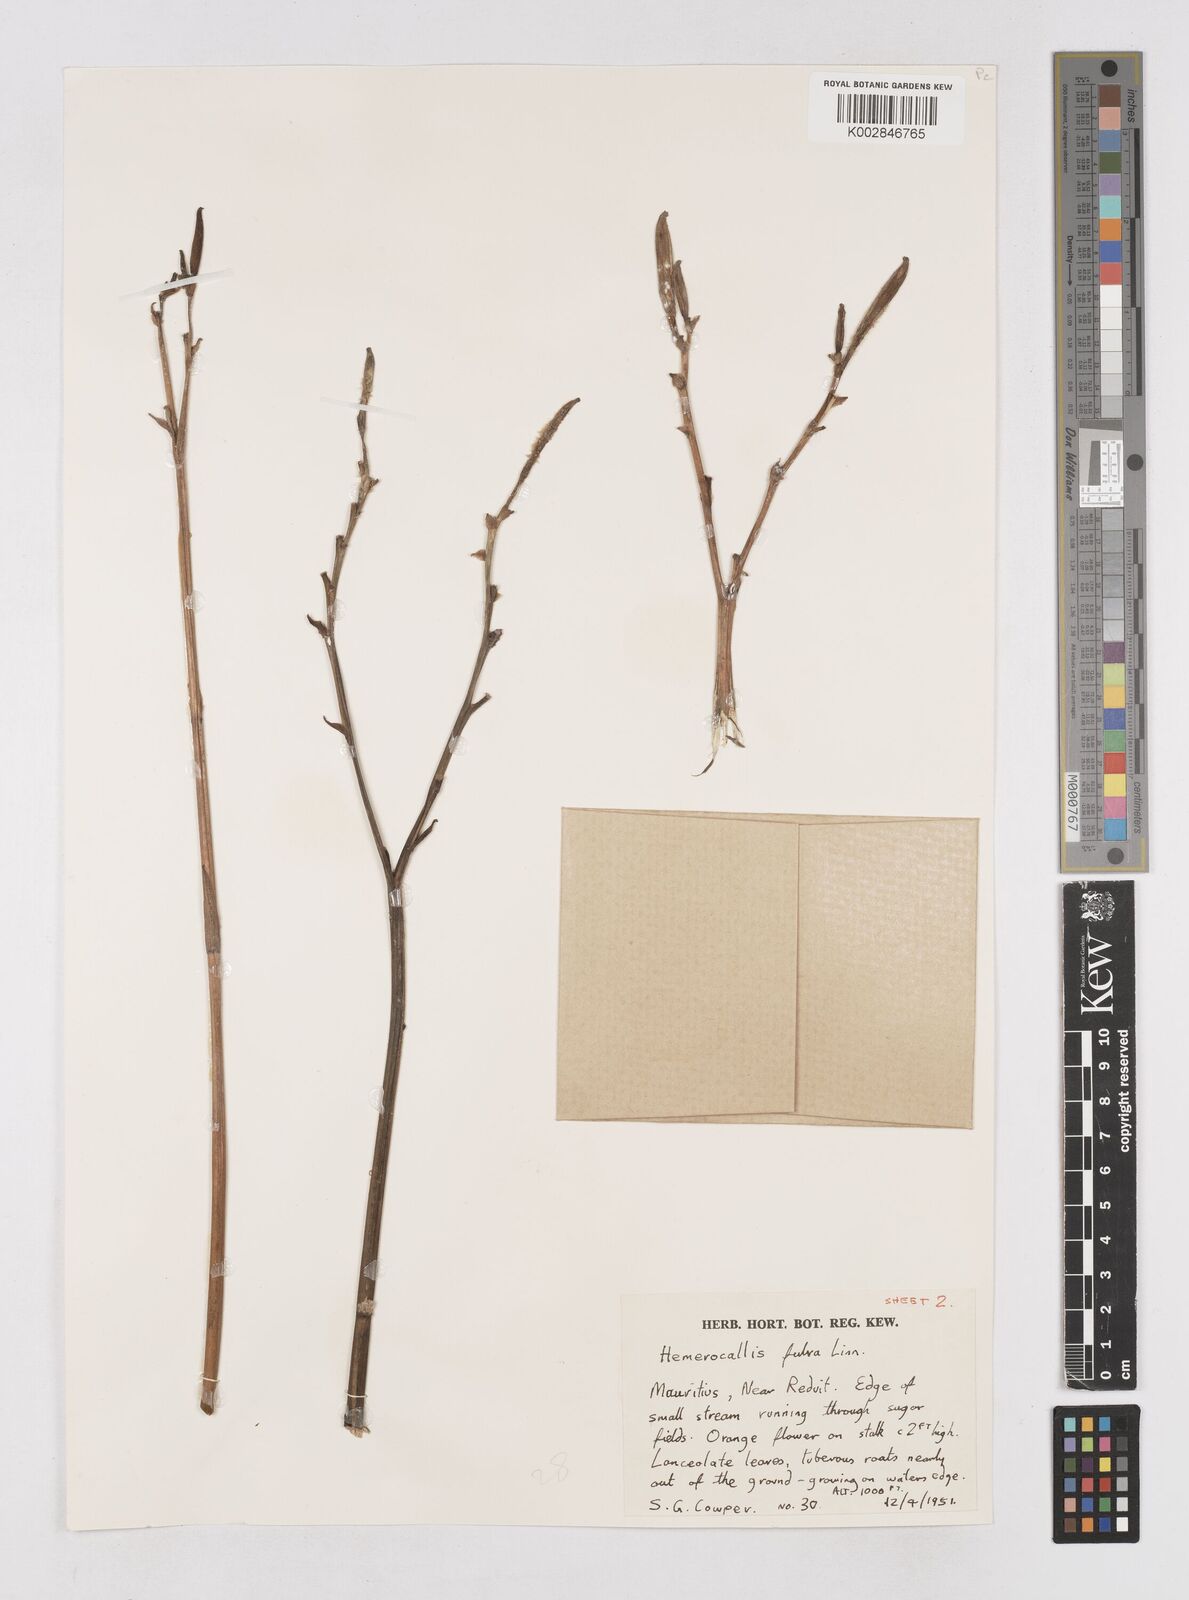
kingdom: Plantae
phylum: Tracheophyta
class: Liliopsida
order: Asparagales
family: Asphodelaceae
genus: Hemerocallis
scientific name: Hemerocallis fulva
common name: Orange day-lily
